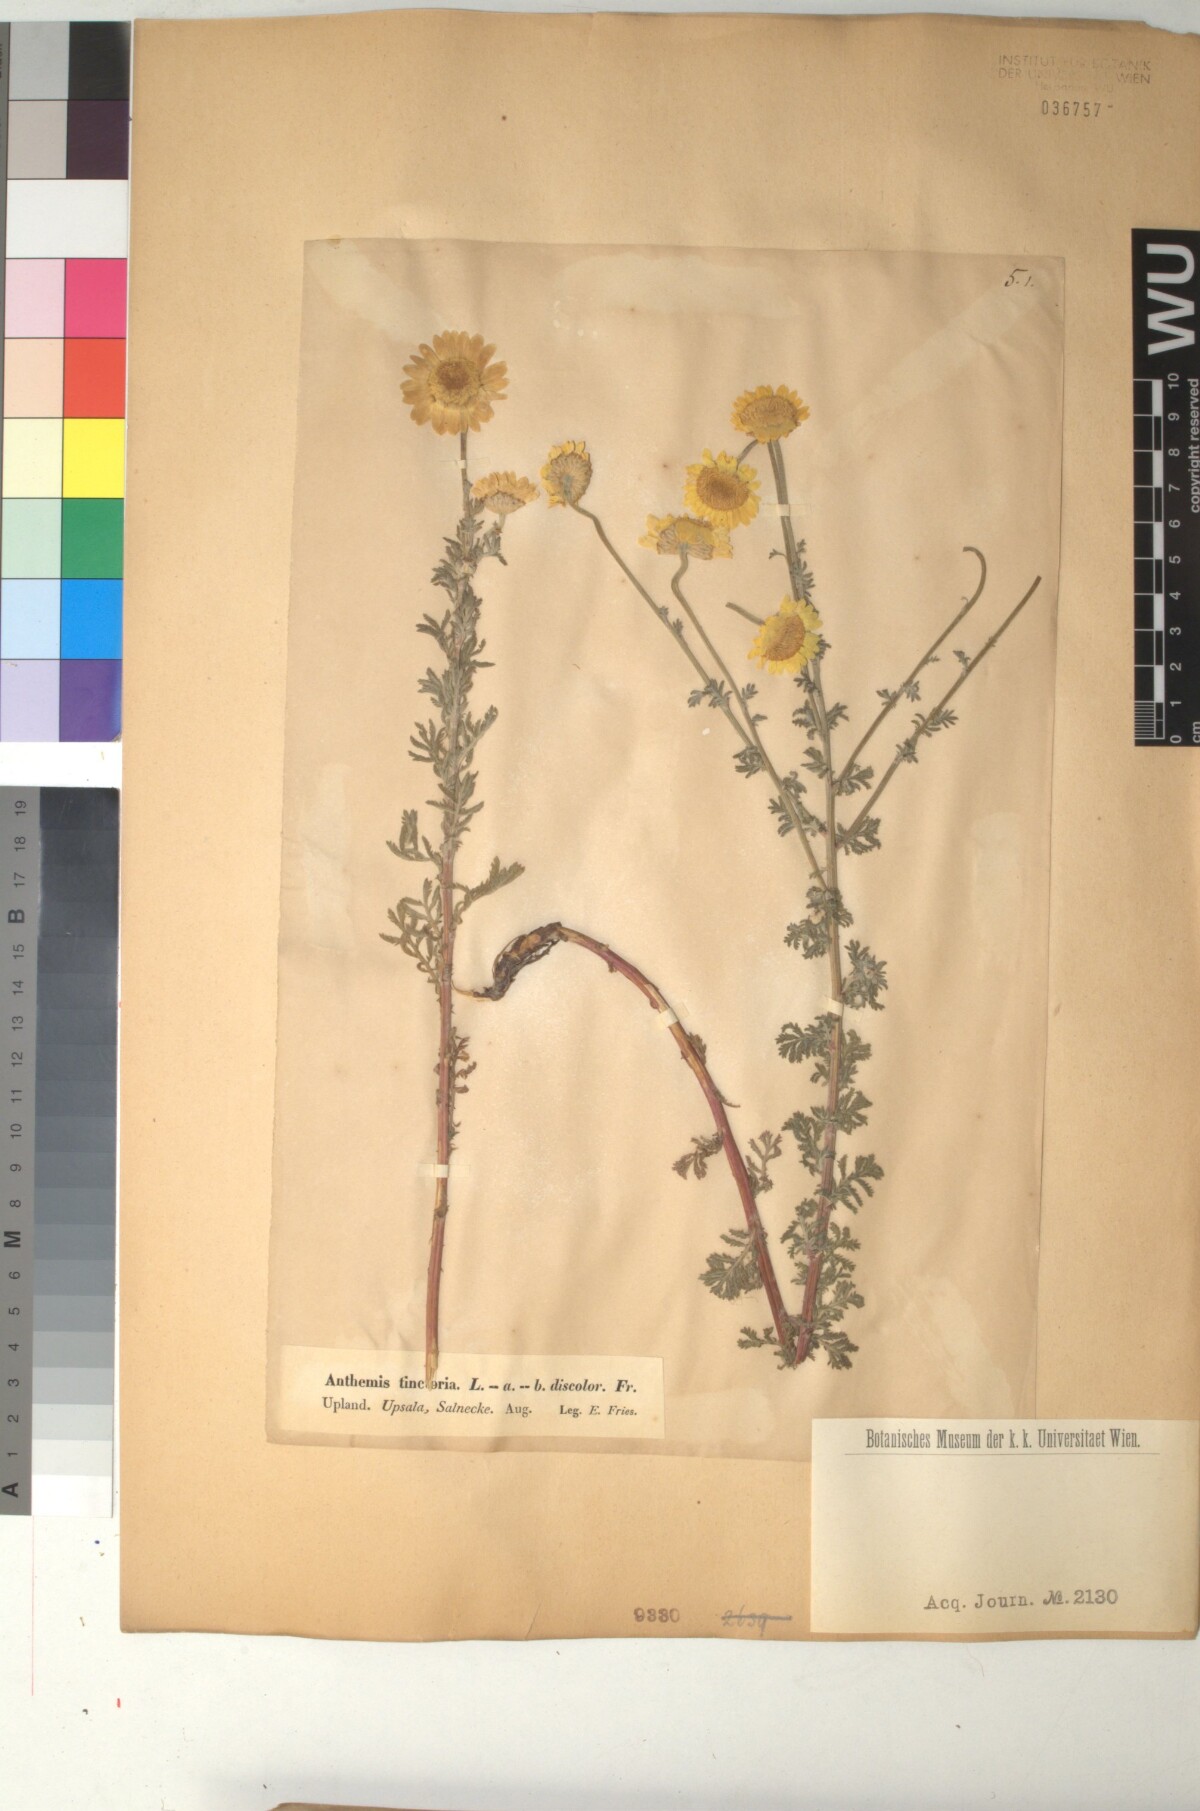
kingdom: Plantae
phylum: Tracheophyta
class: Magnoliopsida
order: Asterales
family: Asteraceae
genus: Cota
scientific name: Cota tinctoria
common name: Golden chamomile
